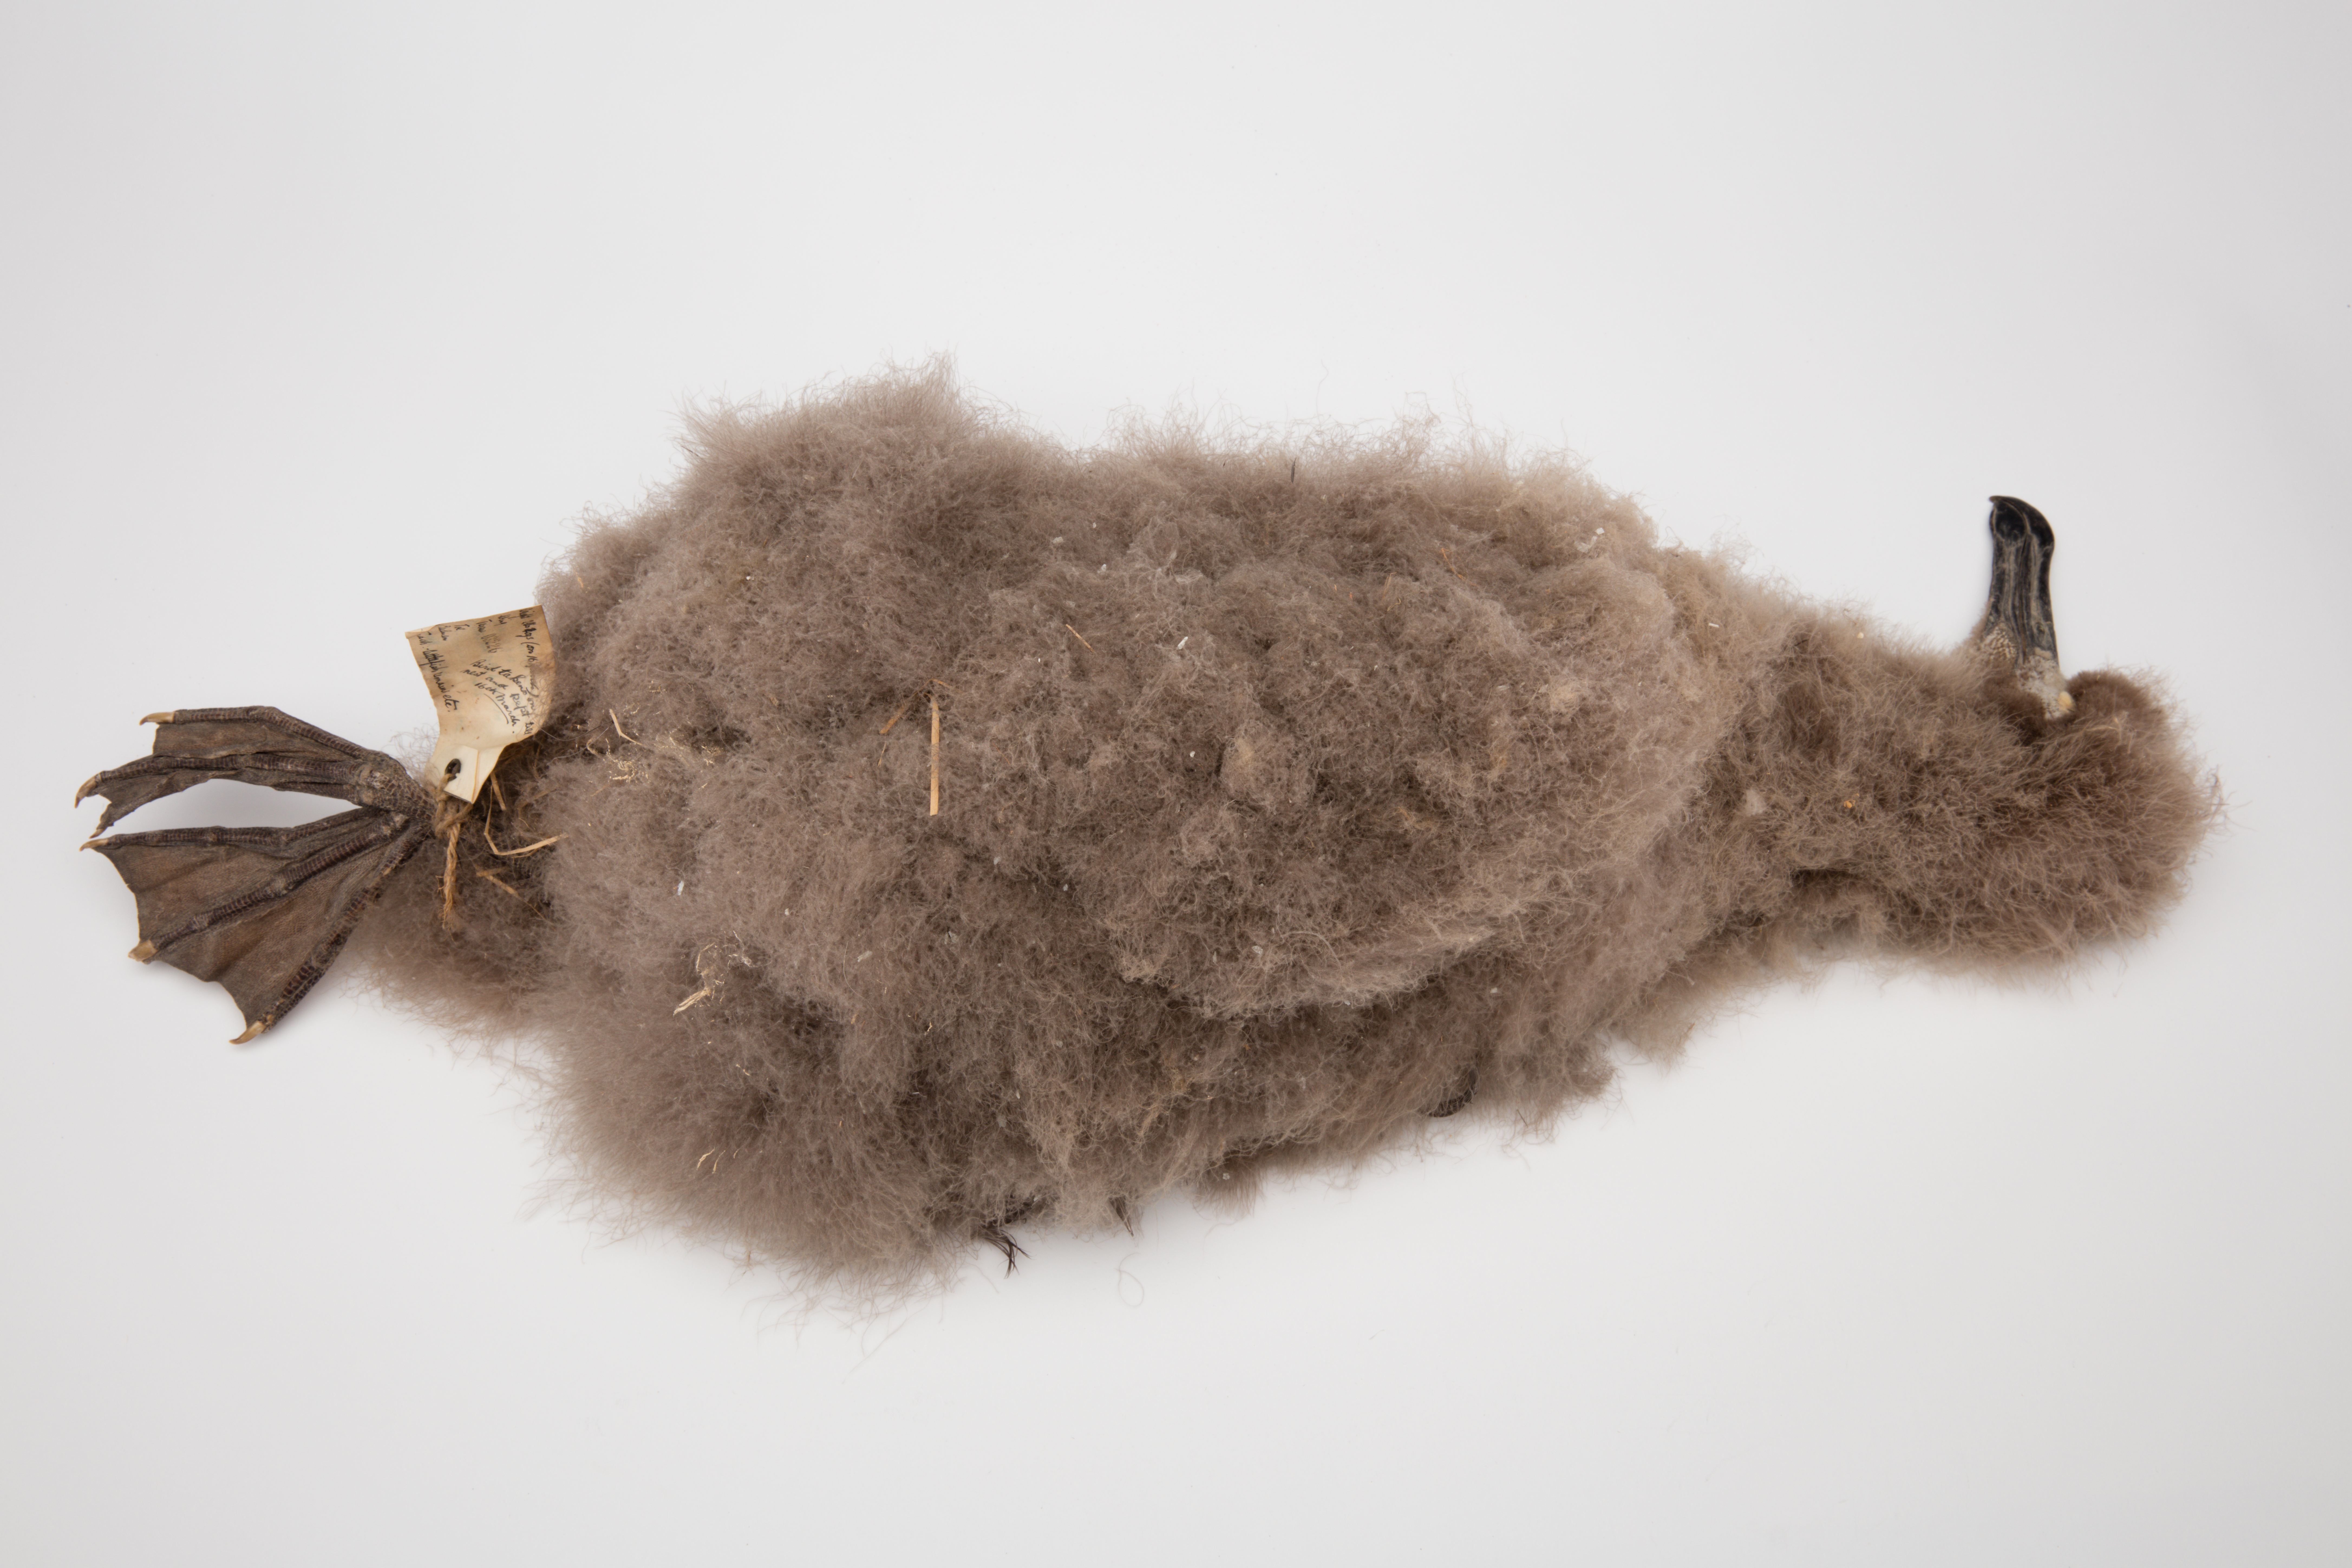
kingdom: Animalia
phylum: Chordata
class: Aves
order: Procellariiformes
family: Diomedeidae
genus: Phoebetria
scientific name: Phoebetria palpebrata
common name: Light-mantled albatross
